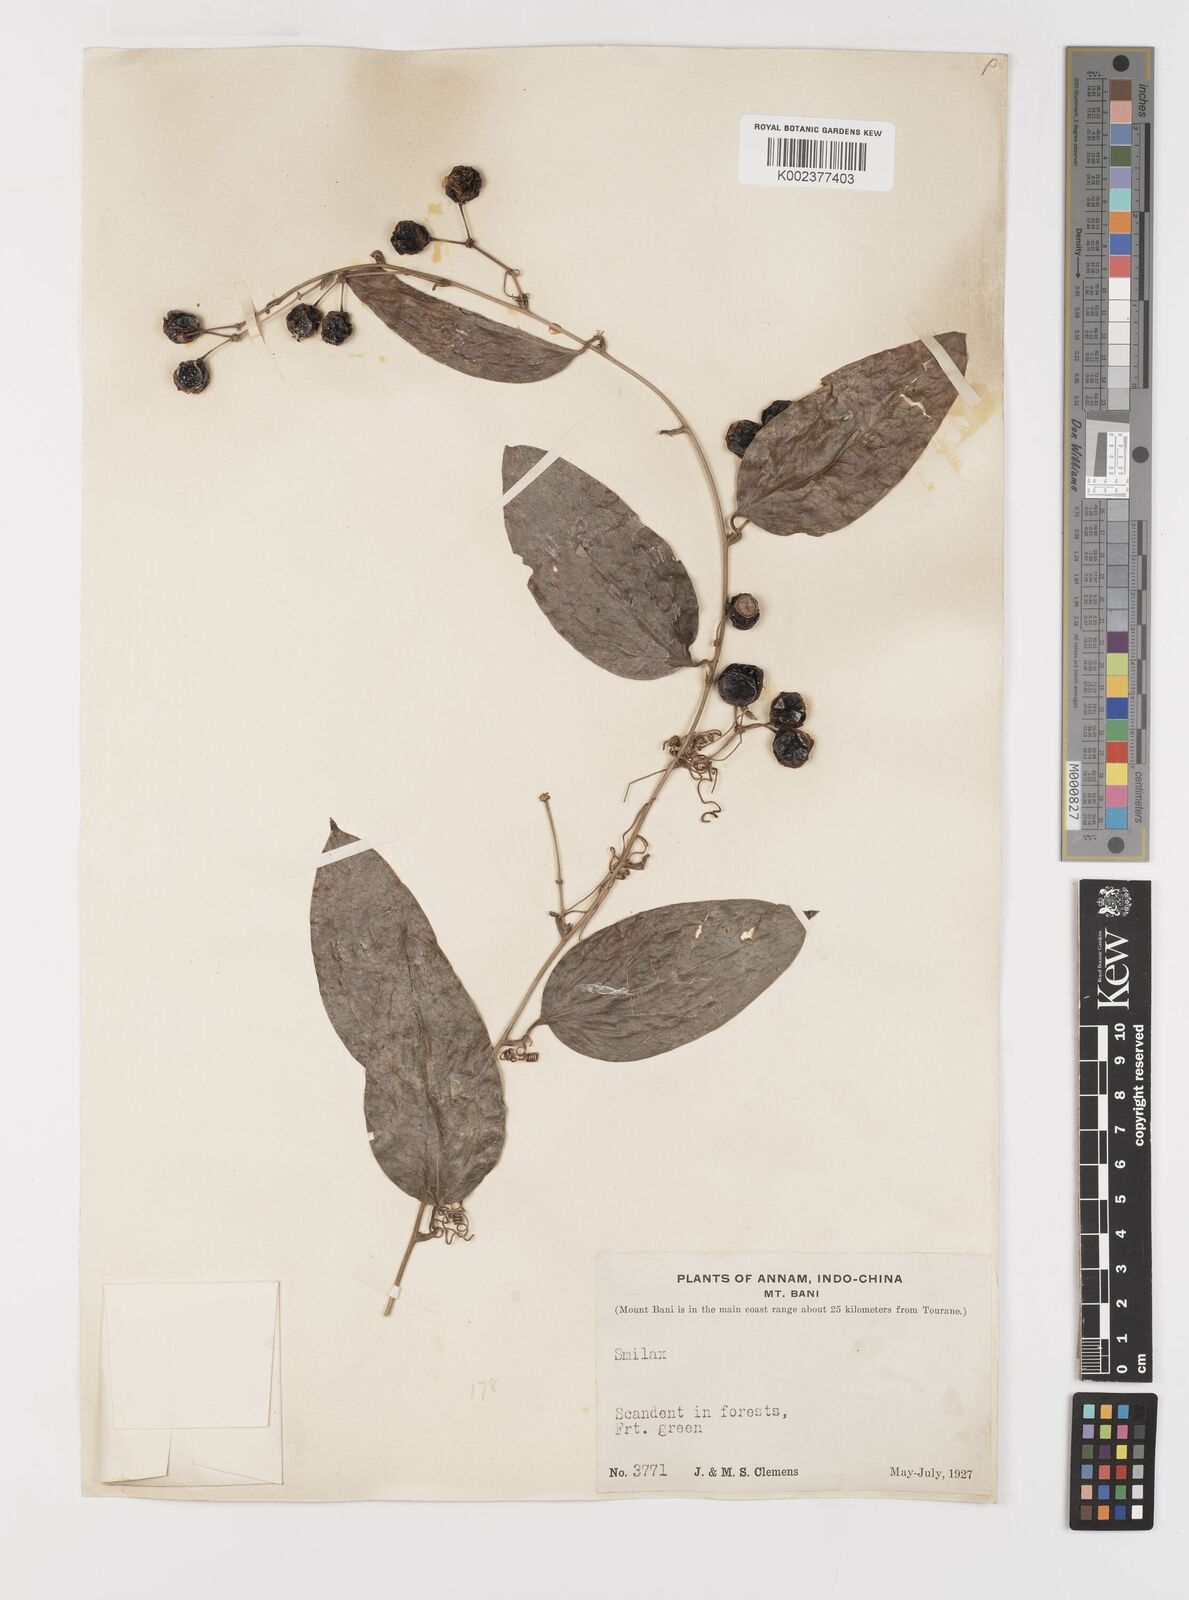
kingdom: Plantae
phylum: Tracheophyta
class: Liliopsida
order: Liliales
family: Smilacaceae
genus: Smilax
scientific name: Smilax
